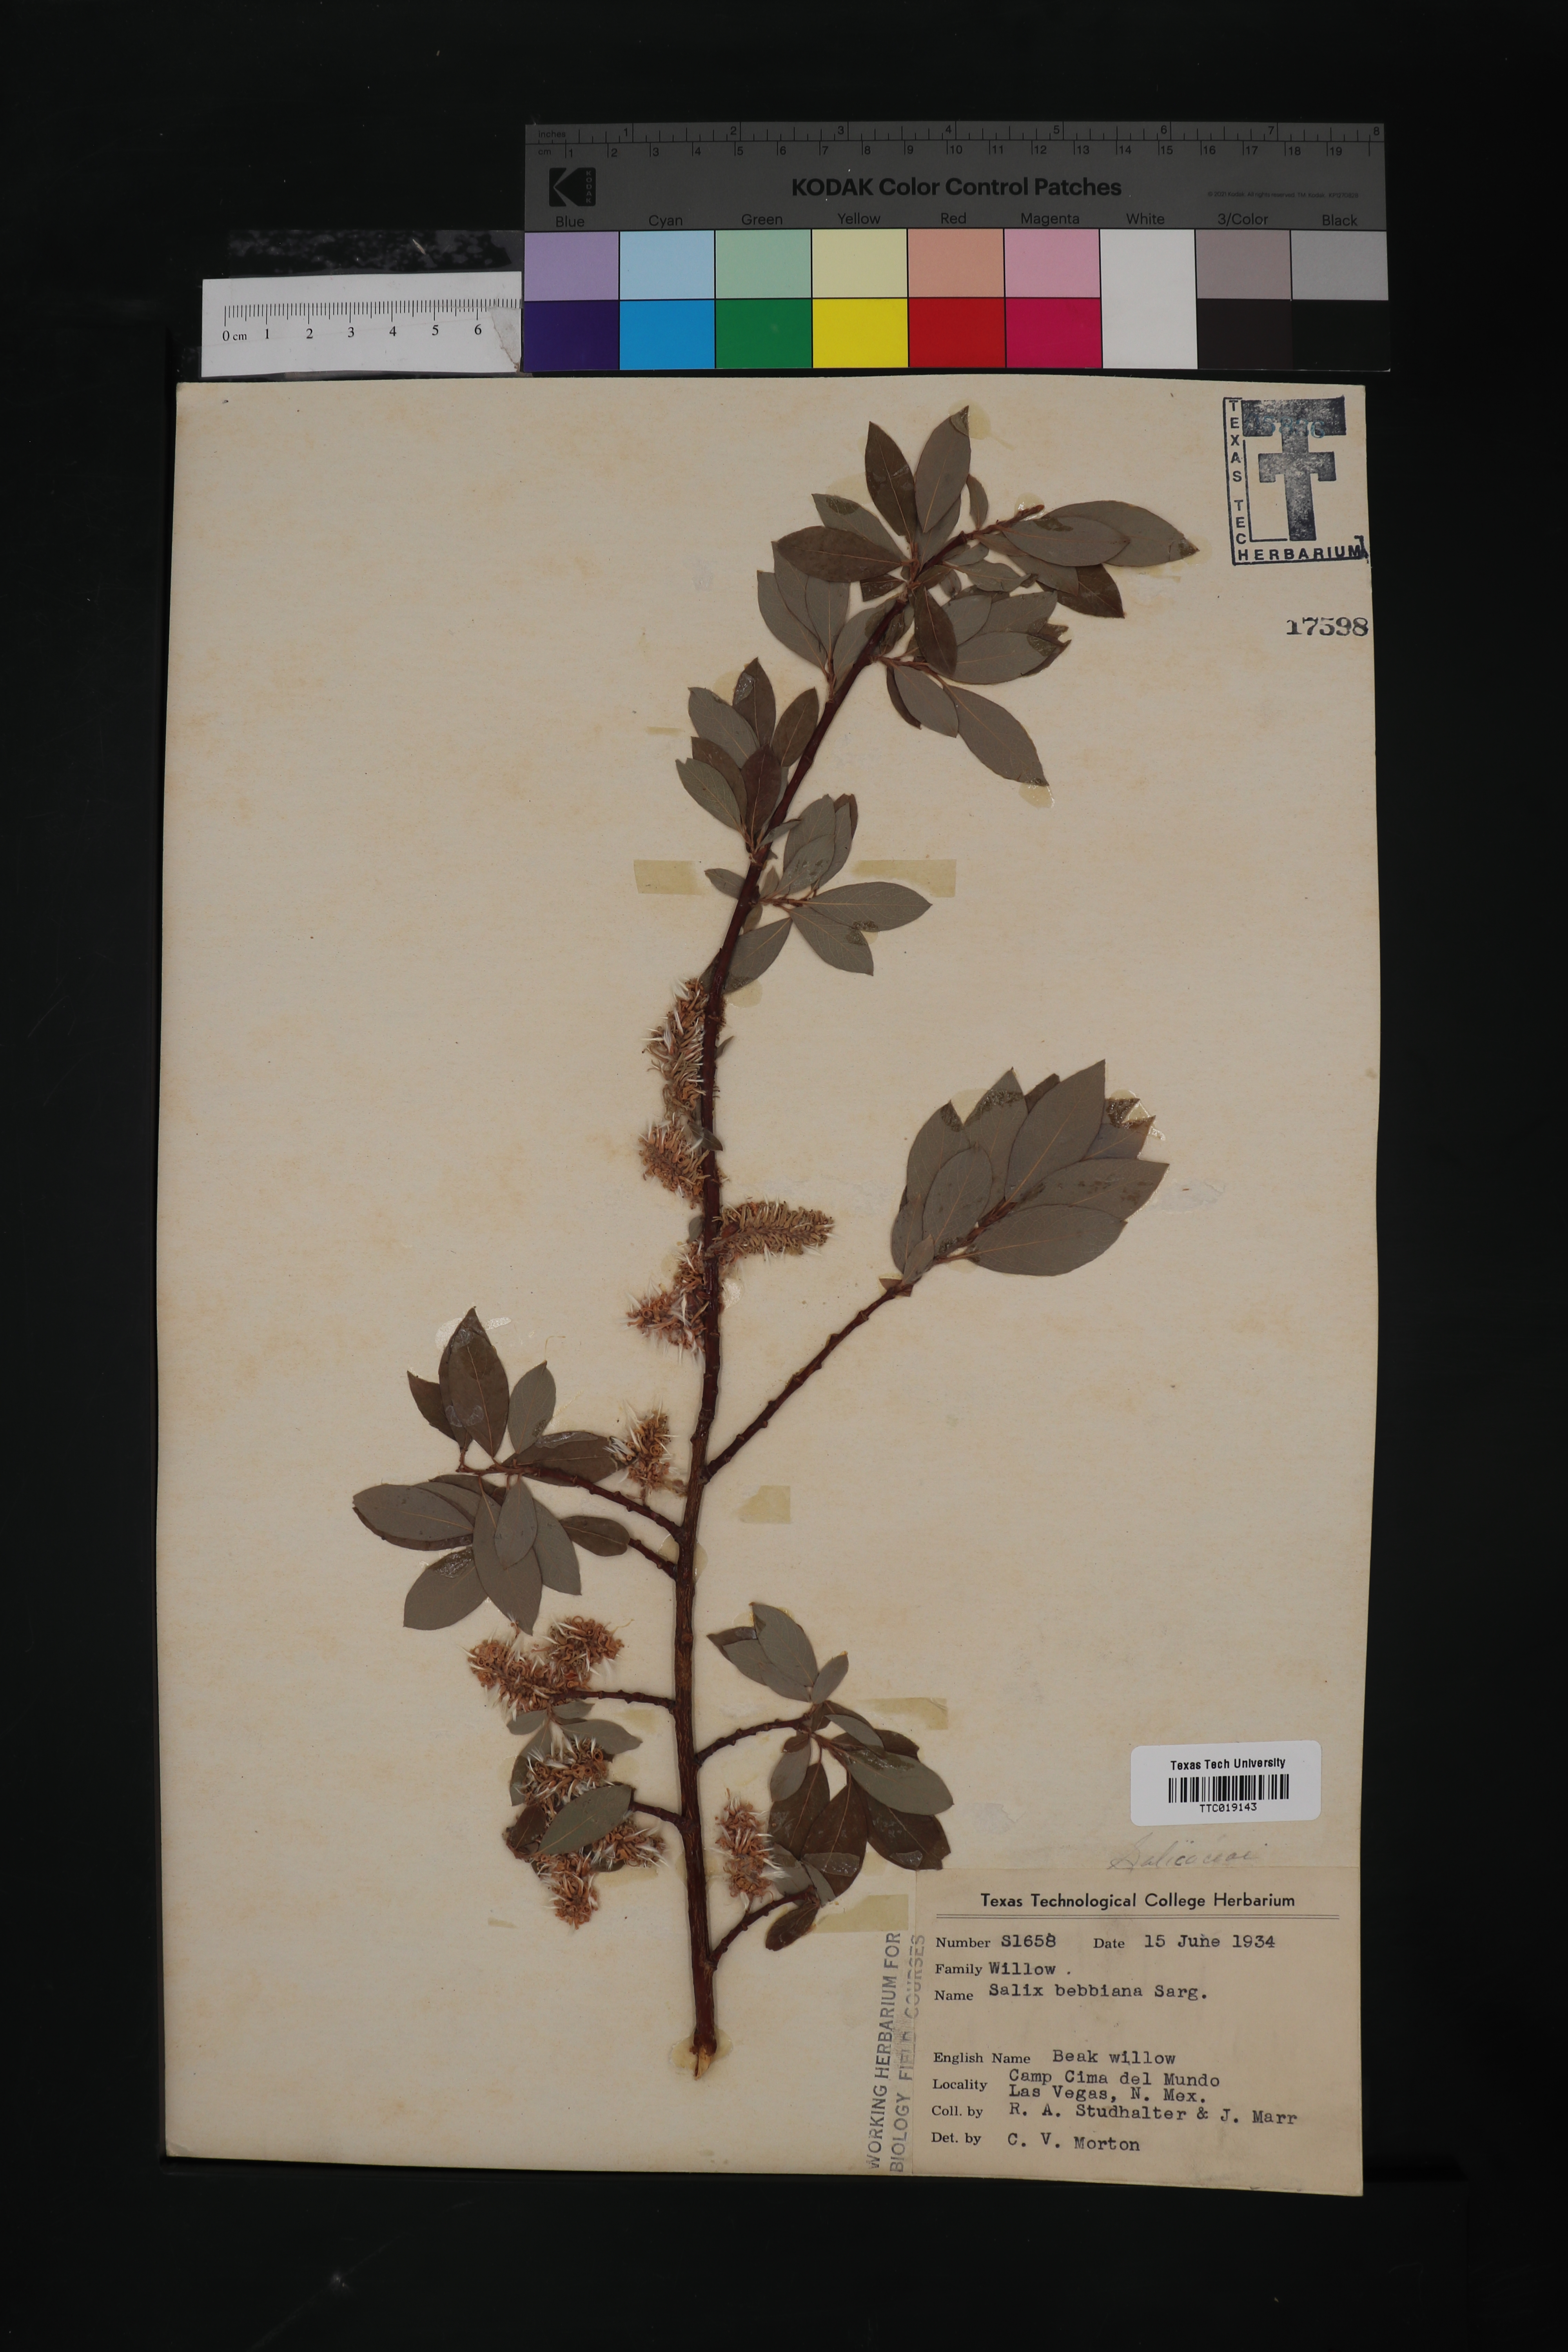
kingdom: Plantae
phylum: Tracheophyta
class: Magnoliopsida
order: Malpighiales
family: Salicaceae
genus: Salix
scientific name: Salix bebbiana
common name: Bebb's willow
